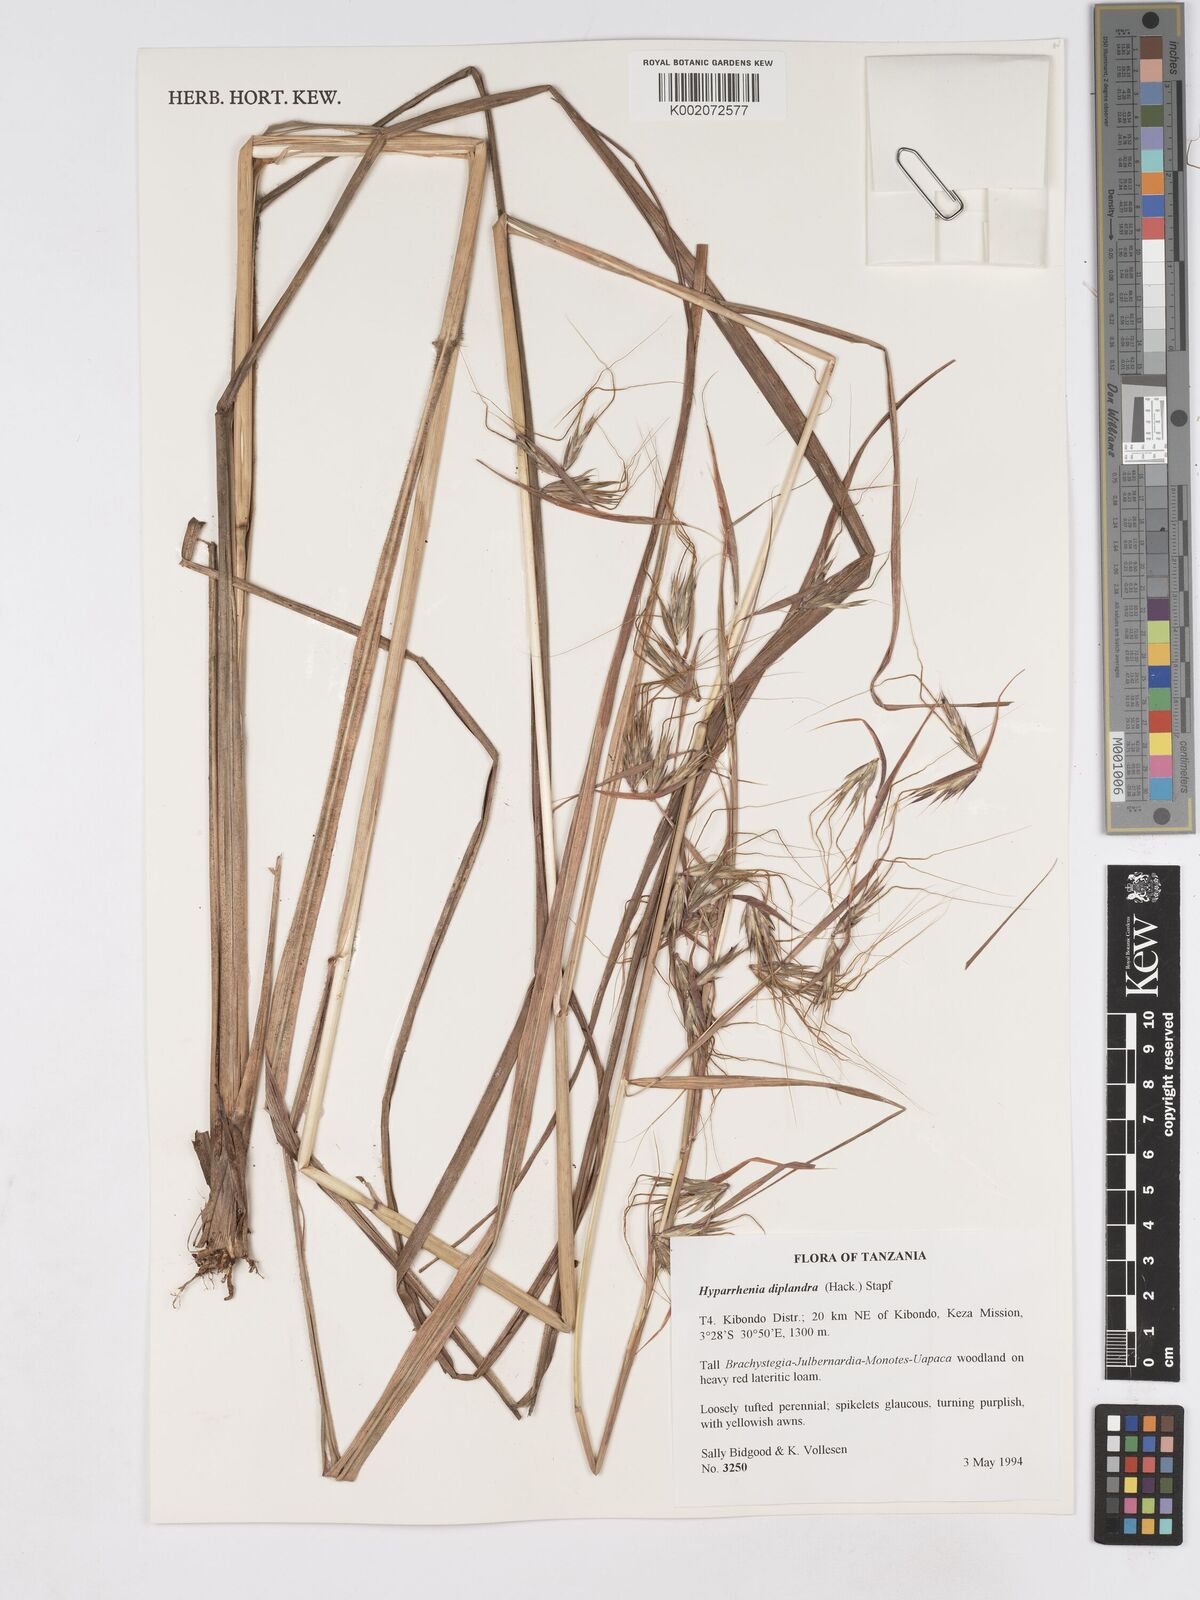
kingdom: Plantae
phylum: Tracheophyta
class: Liliopsida
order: Poales
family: Poaceae
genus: Hyparrhenia
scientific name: Hyparrhenia diplandra
